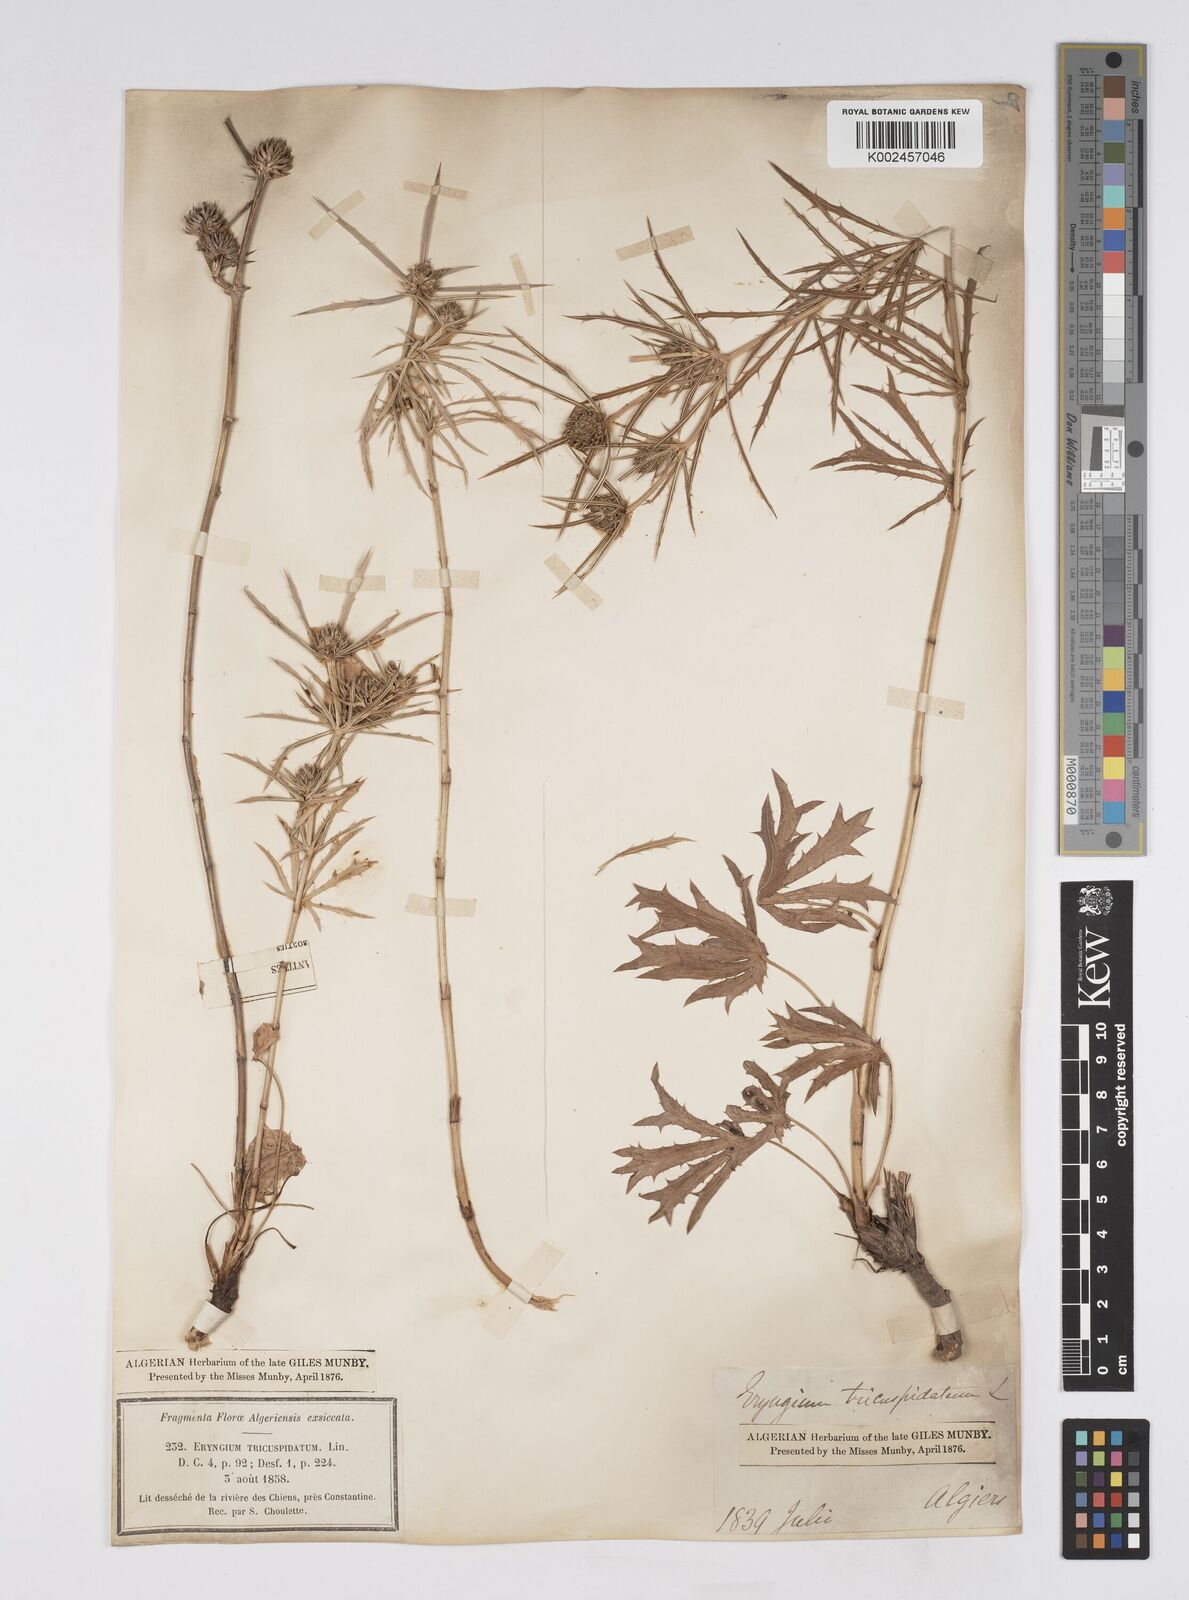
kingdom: Plantae
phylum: Tracheophyta
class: Magnoliopsida
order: Apiales
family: Apiaceae
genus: Eryngium
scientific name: Eryngium tricuspidatum
